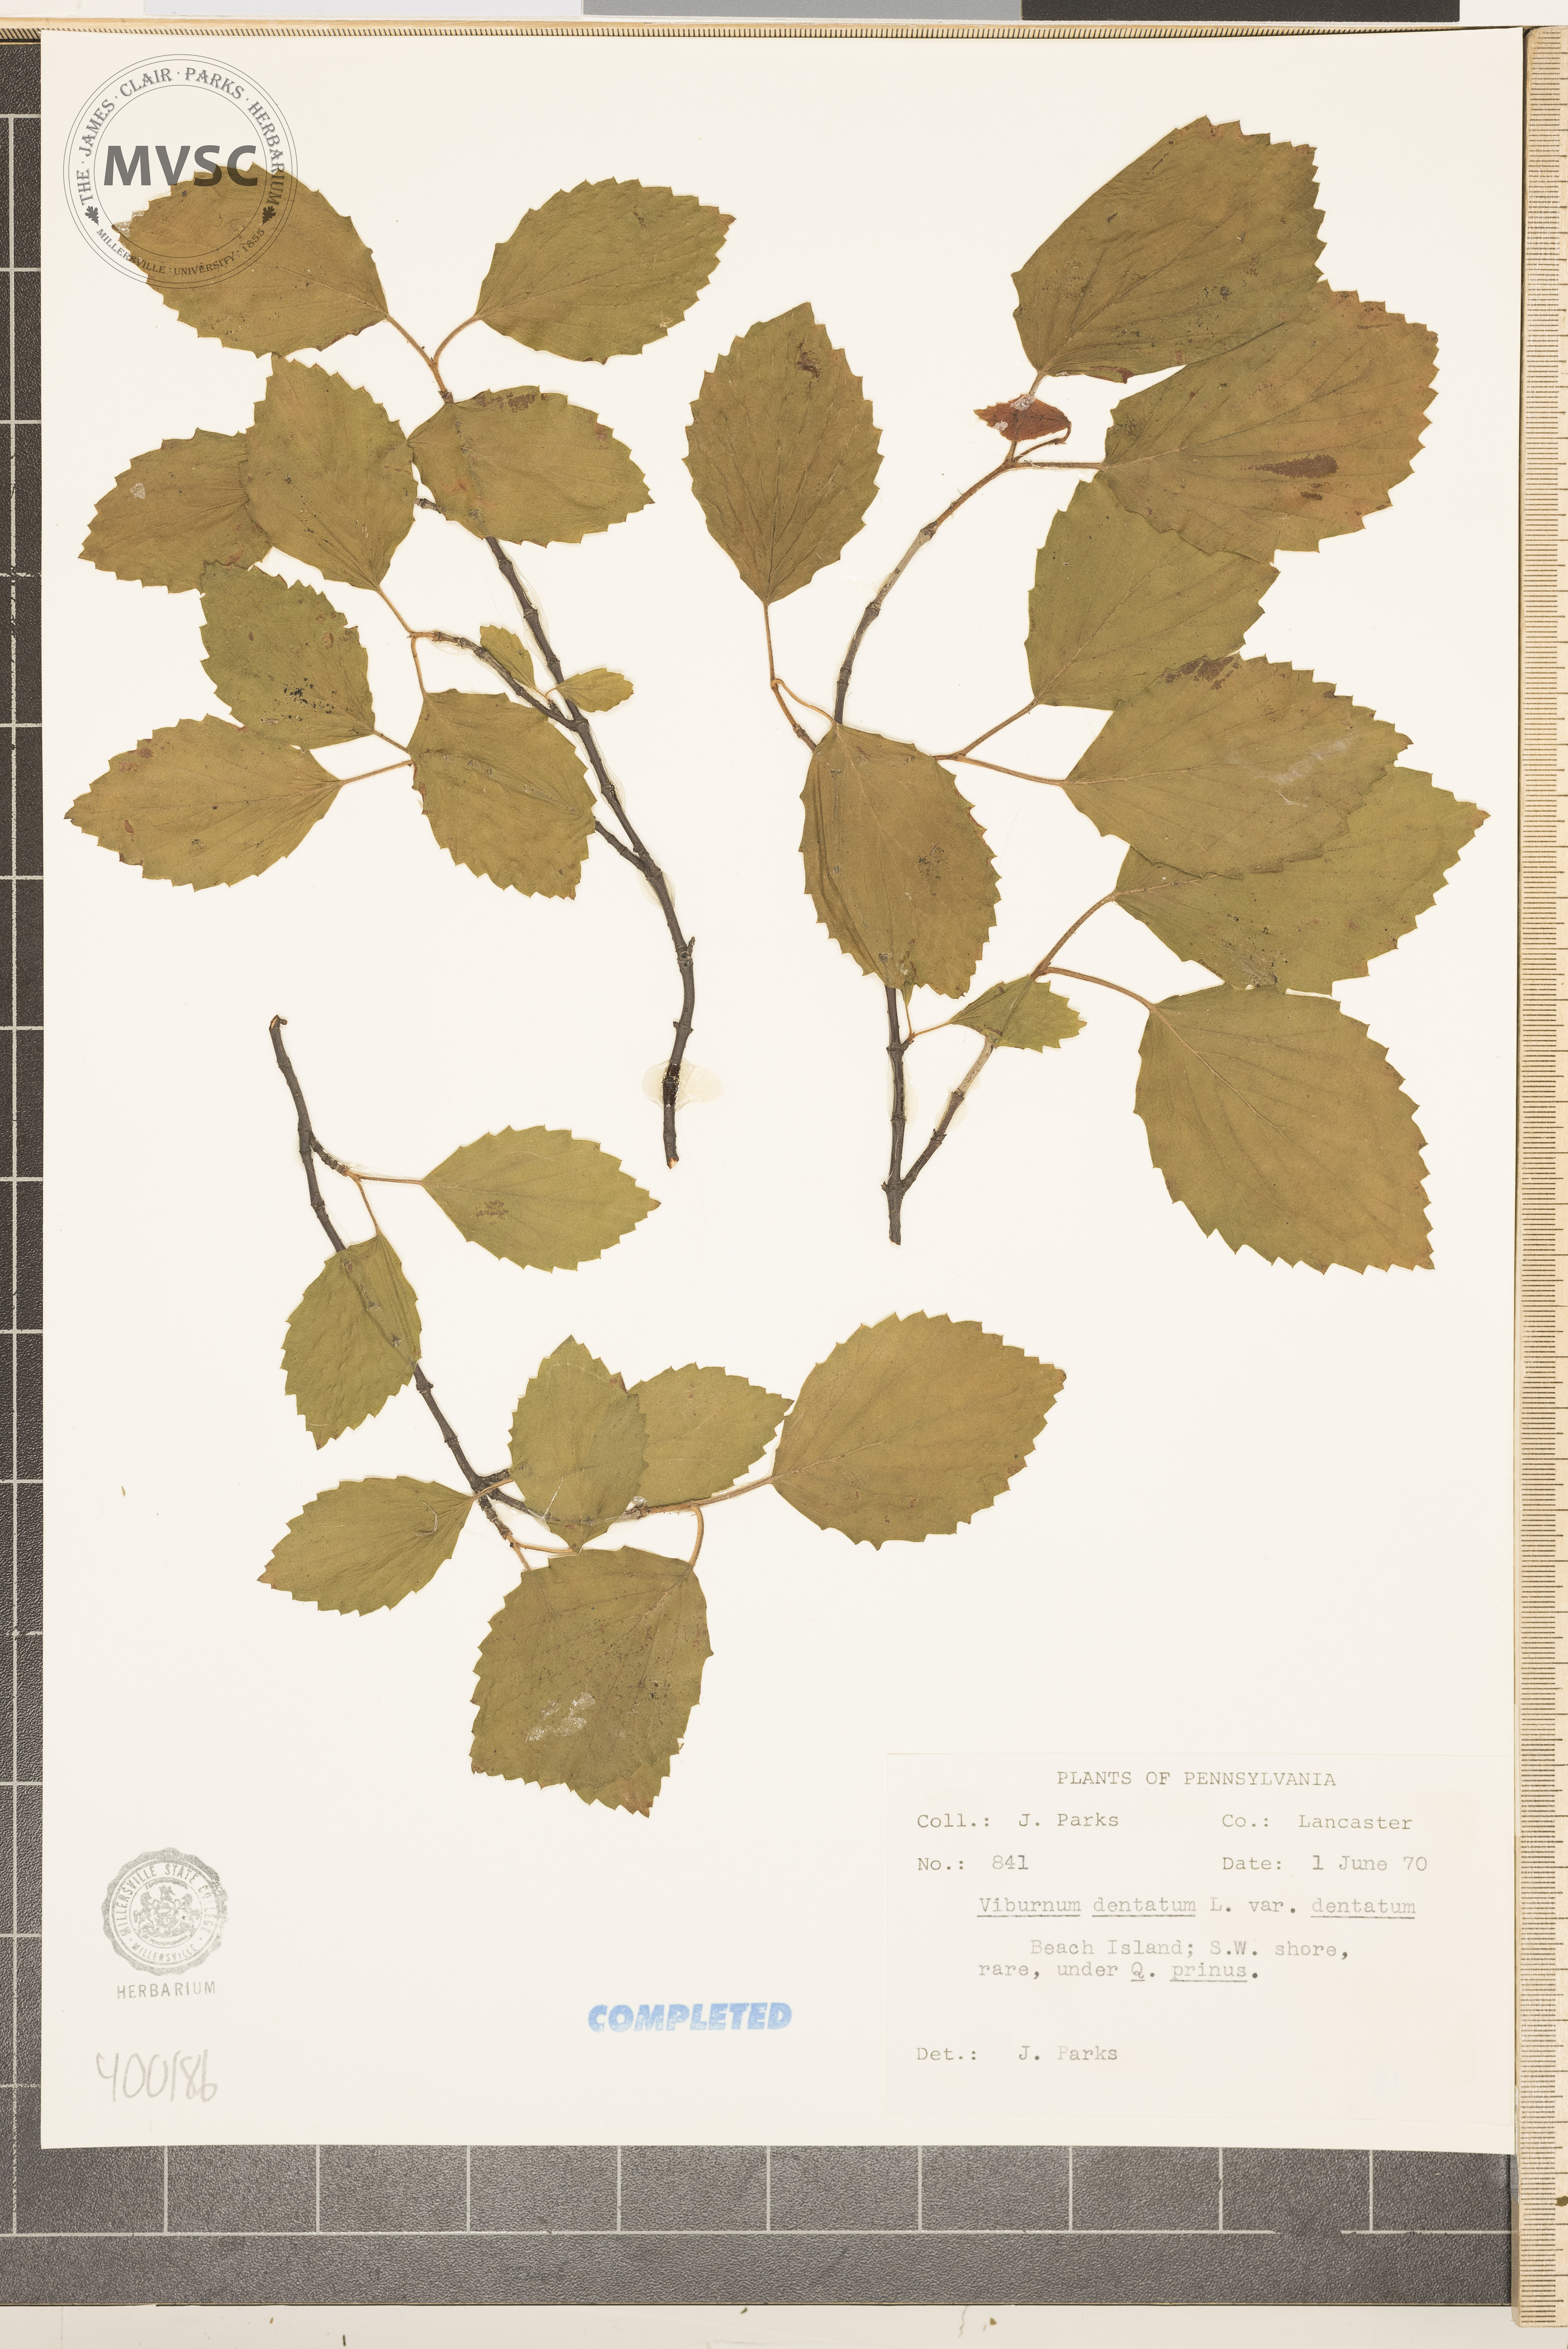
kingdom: Plantae
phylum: Tracheophyta
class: Magnoliopsida
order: Dipsacales
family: Viburnaceae
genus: Viburnum
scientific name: Viburnum dentatum
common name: viburnum
